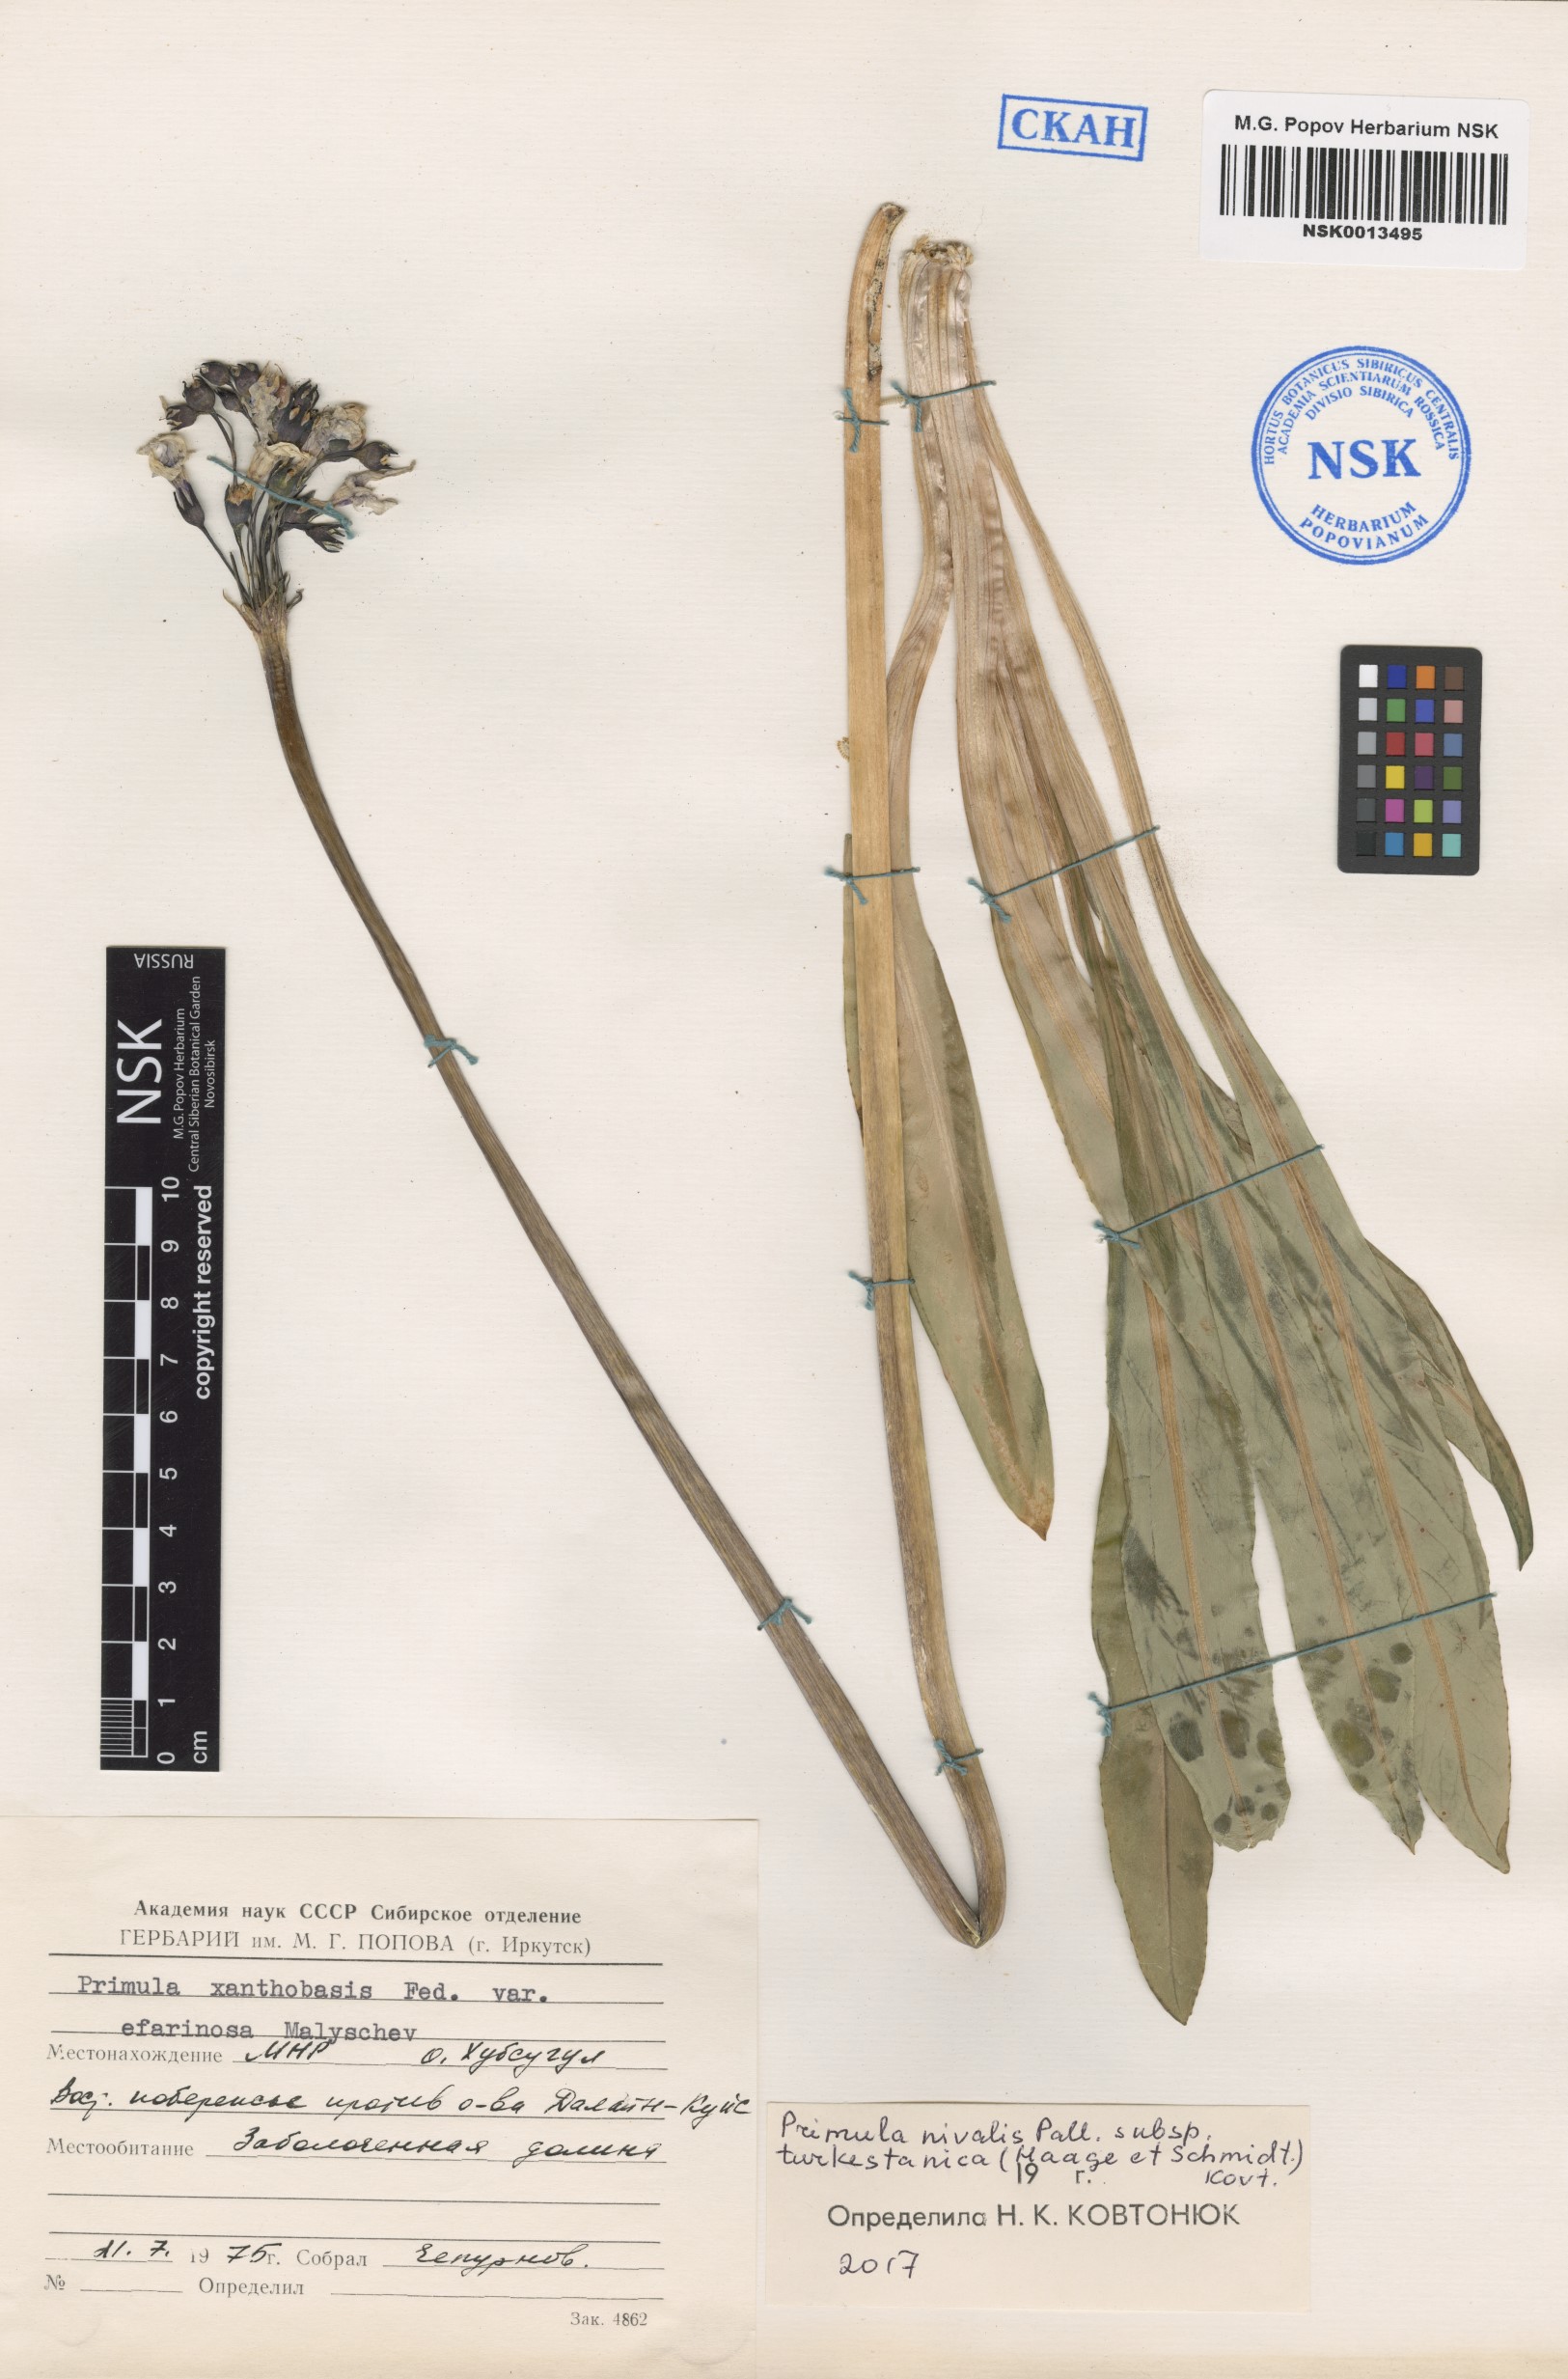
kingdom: Plantae
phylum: Tracheophyta
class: Magnoliopsida
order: Ericales
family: Primulaceae
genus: Primula
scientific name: Primula nivalis
